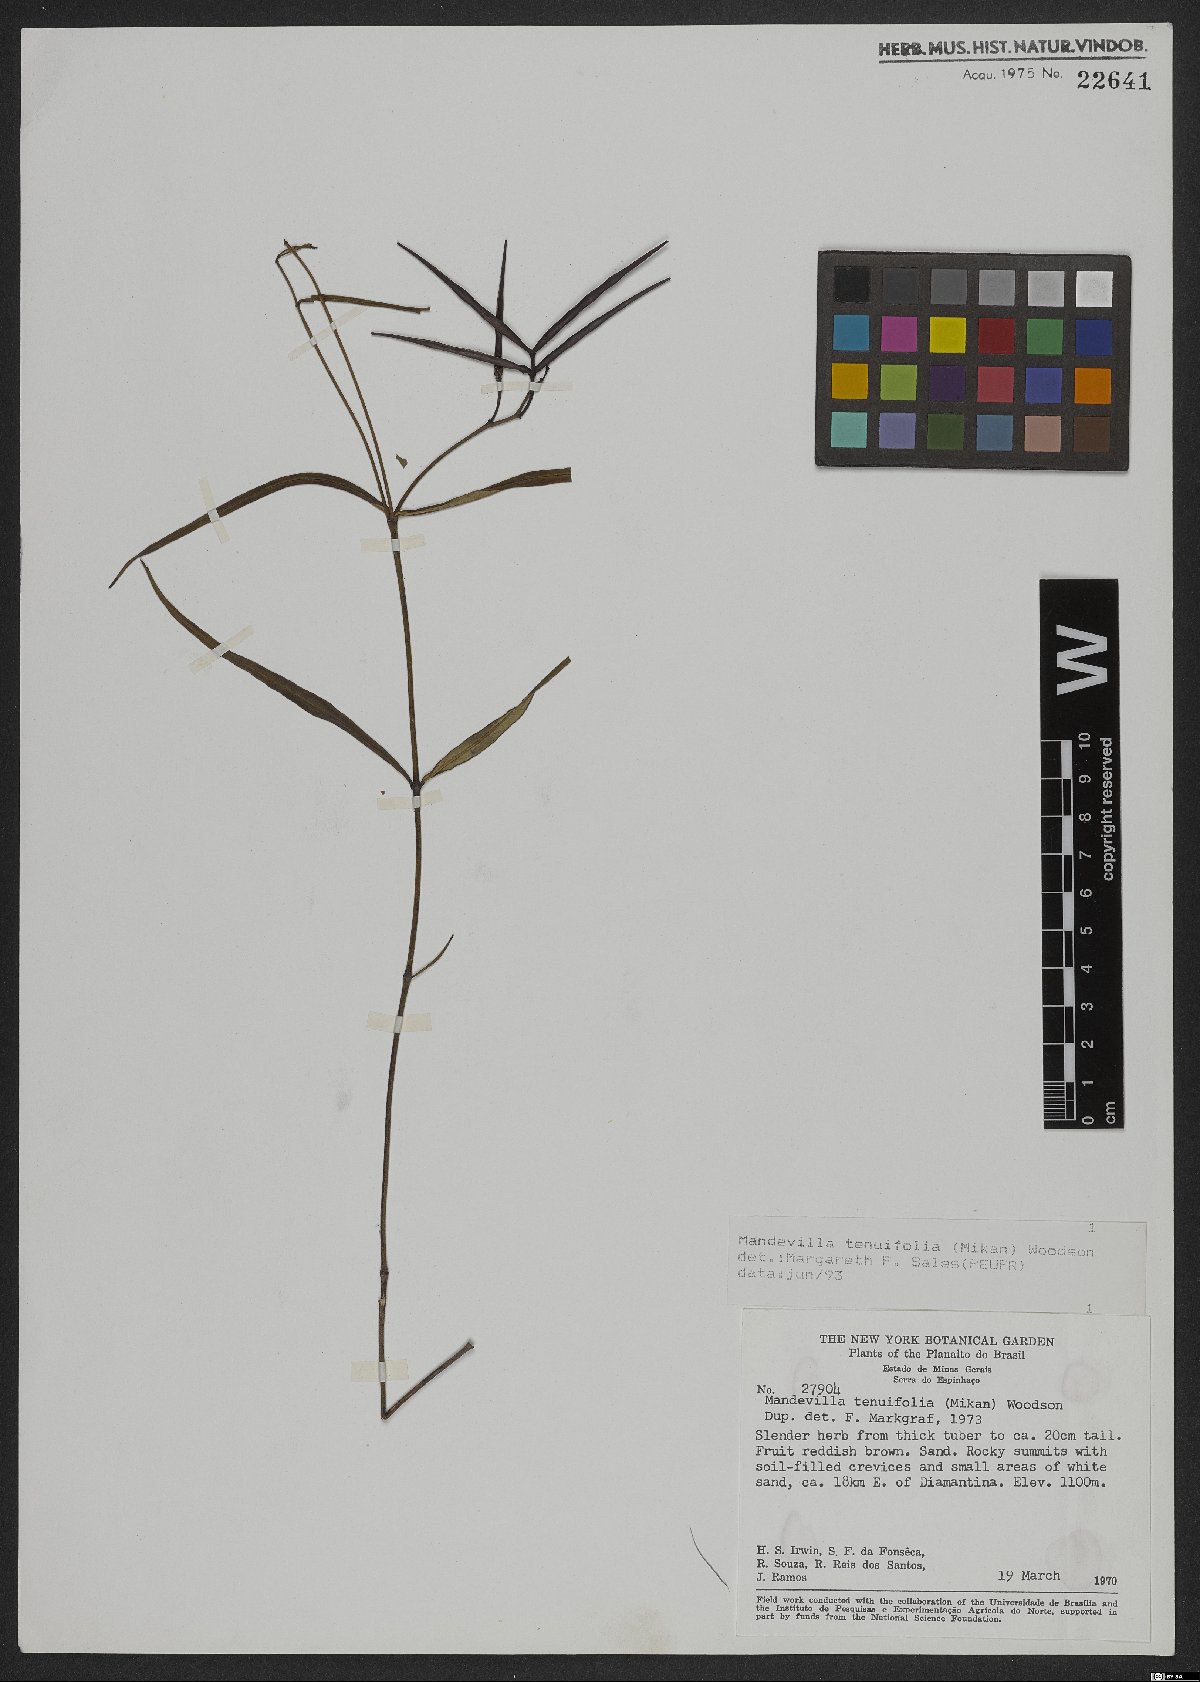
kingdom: Plantae
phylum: Tracheophyta
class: Magnoliopsida
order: Sapindales
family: Sapindaceae
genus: Cardiospermum
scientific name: Cardiospermum anomalum
